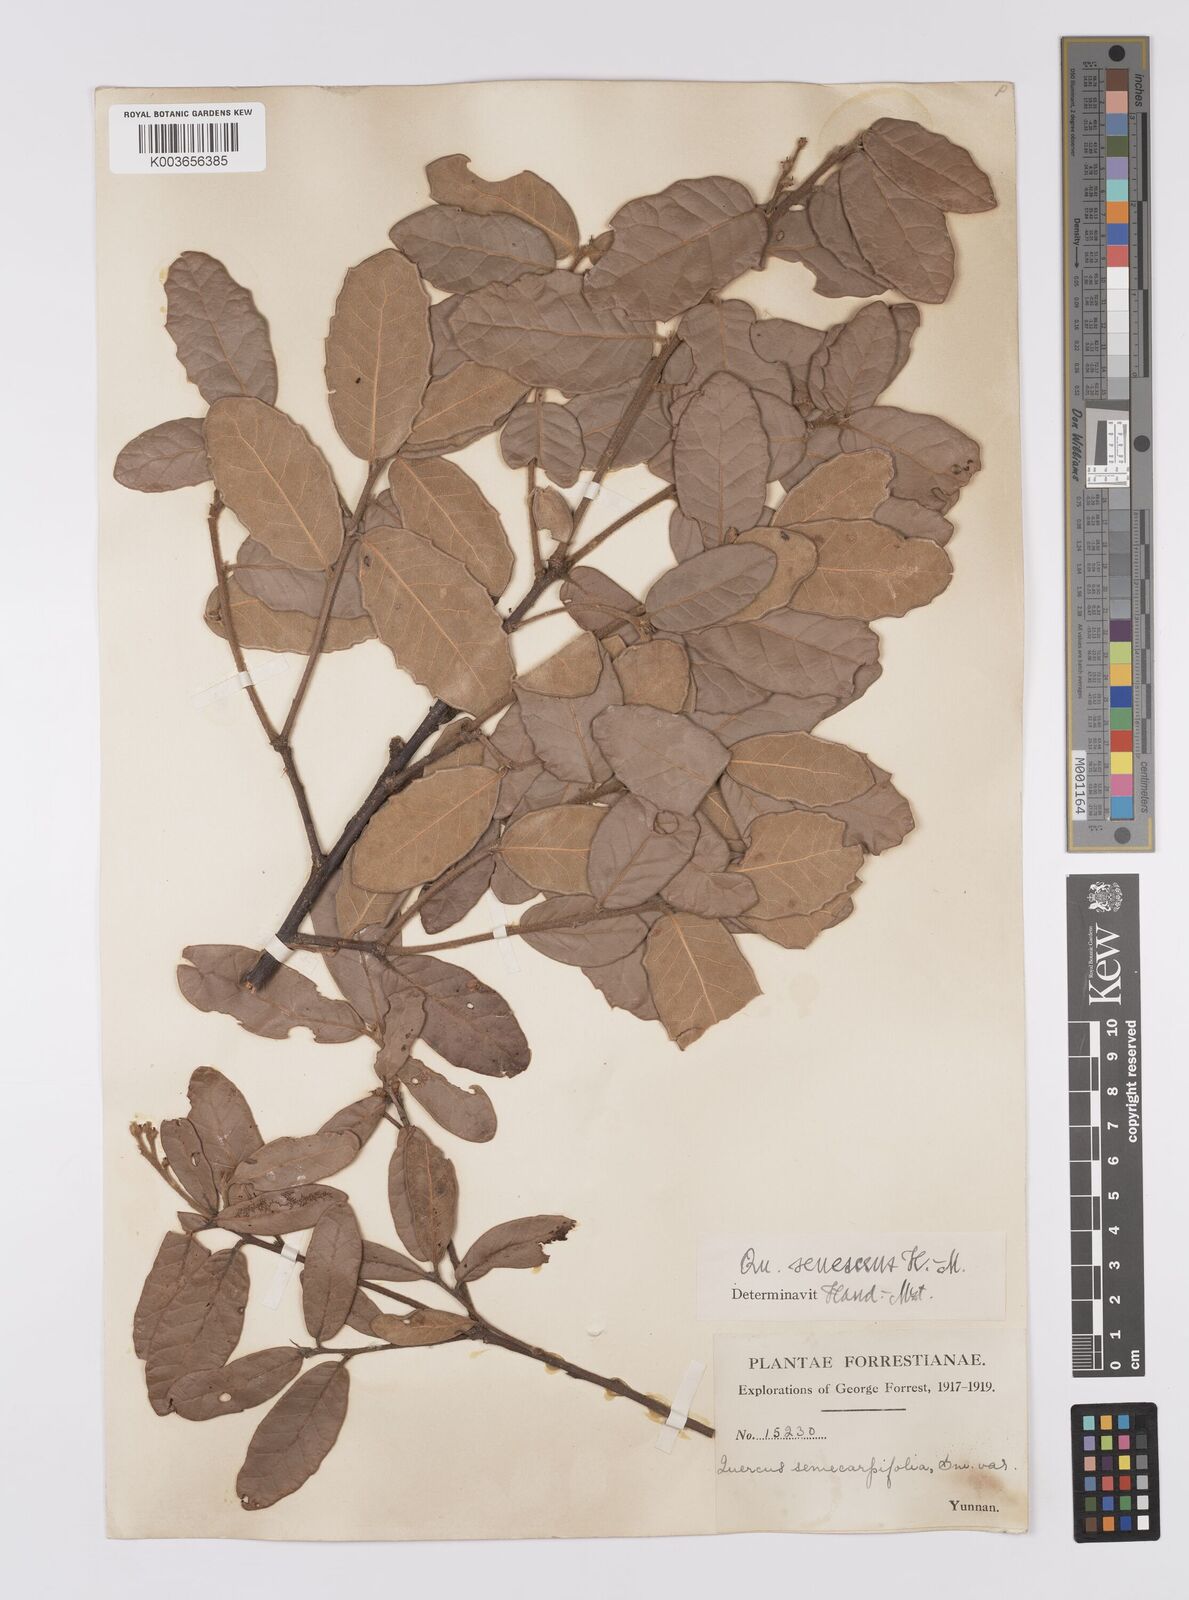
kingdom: Plantae
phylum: Tracheophyta
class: Magnoliopsida
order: Fagales
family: Fagaceae
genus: Quercus
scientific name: Quercus senescens
